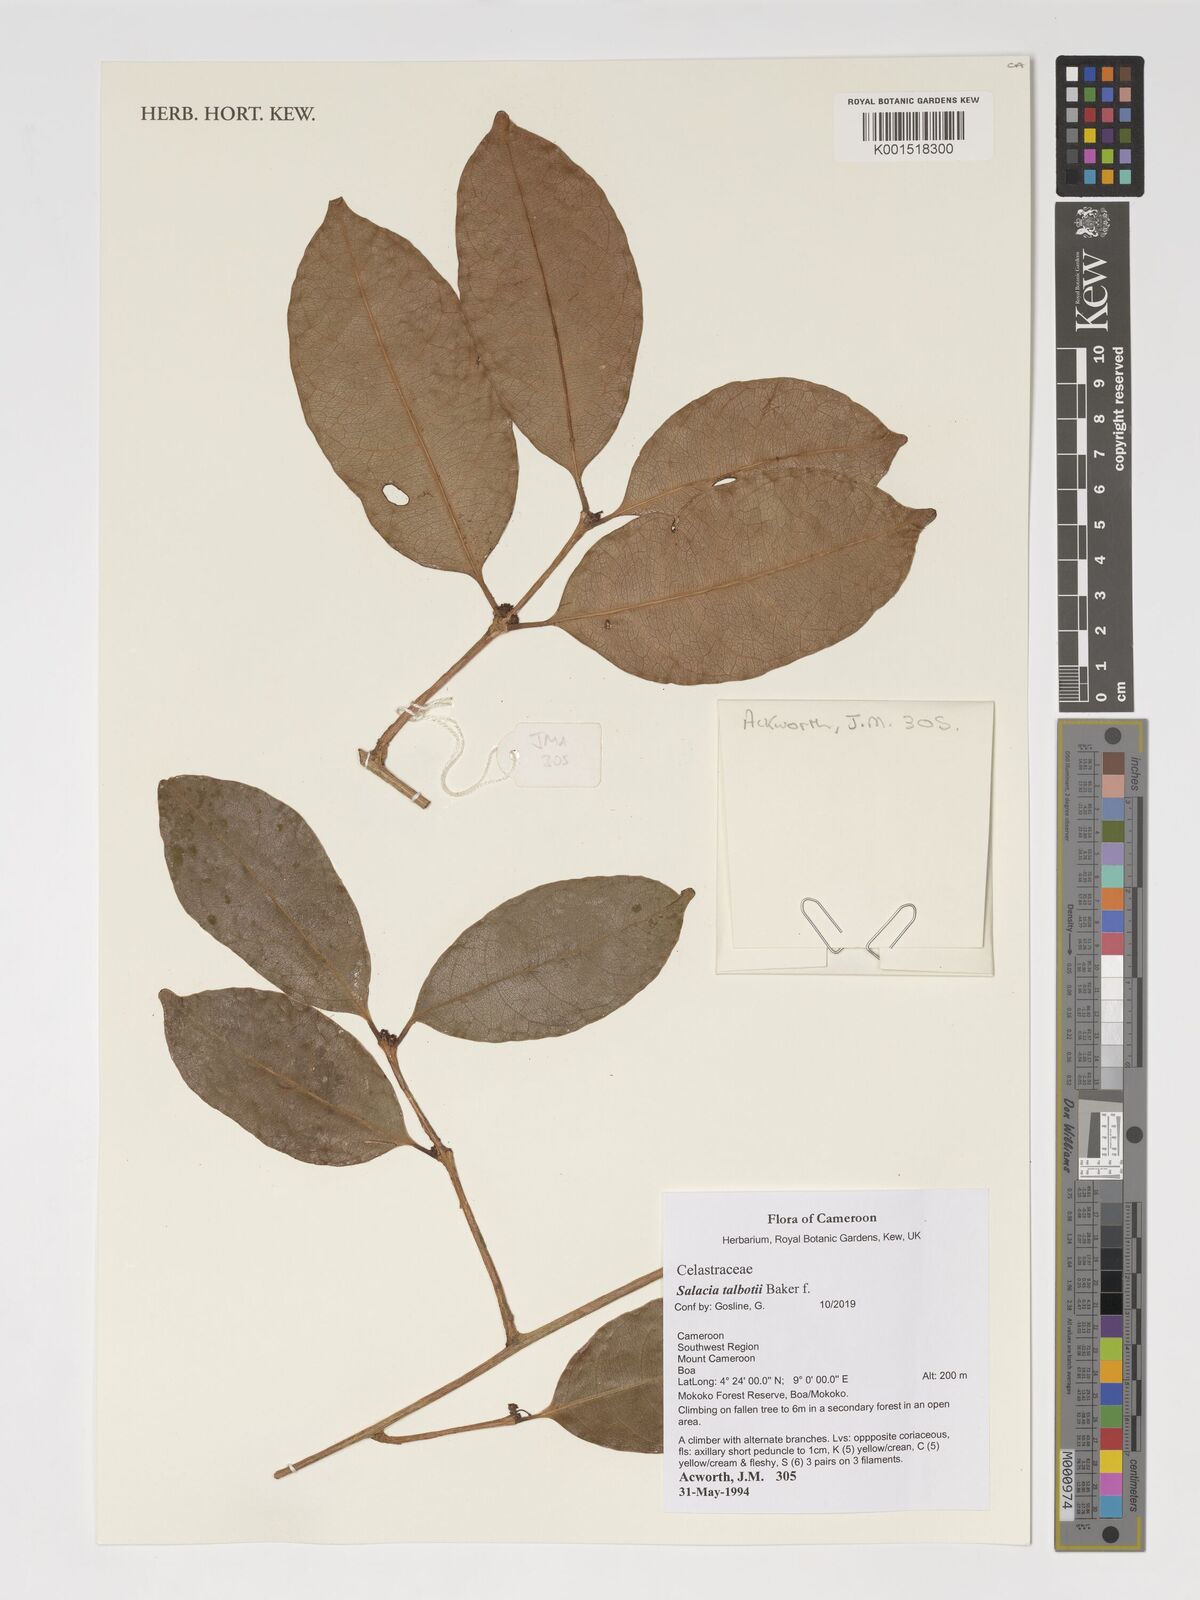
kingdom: Plantae
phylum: Tracheophyta
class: Magnoliopsida
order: Celastrales
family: Celastraceae
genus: Salacia
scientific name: Salacia talbotii
